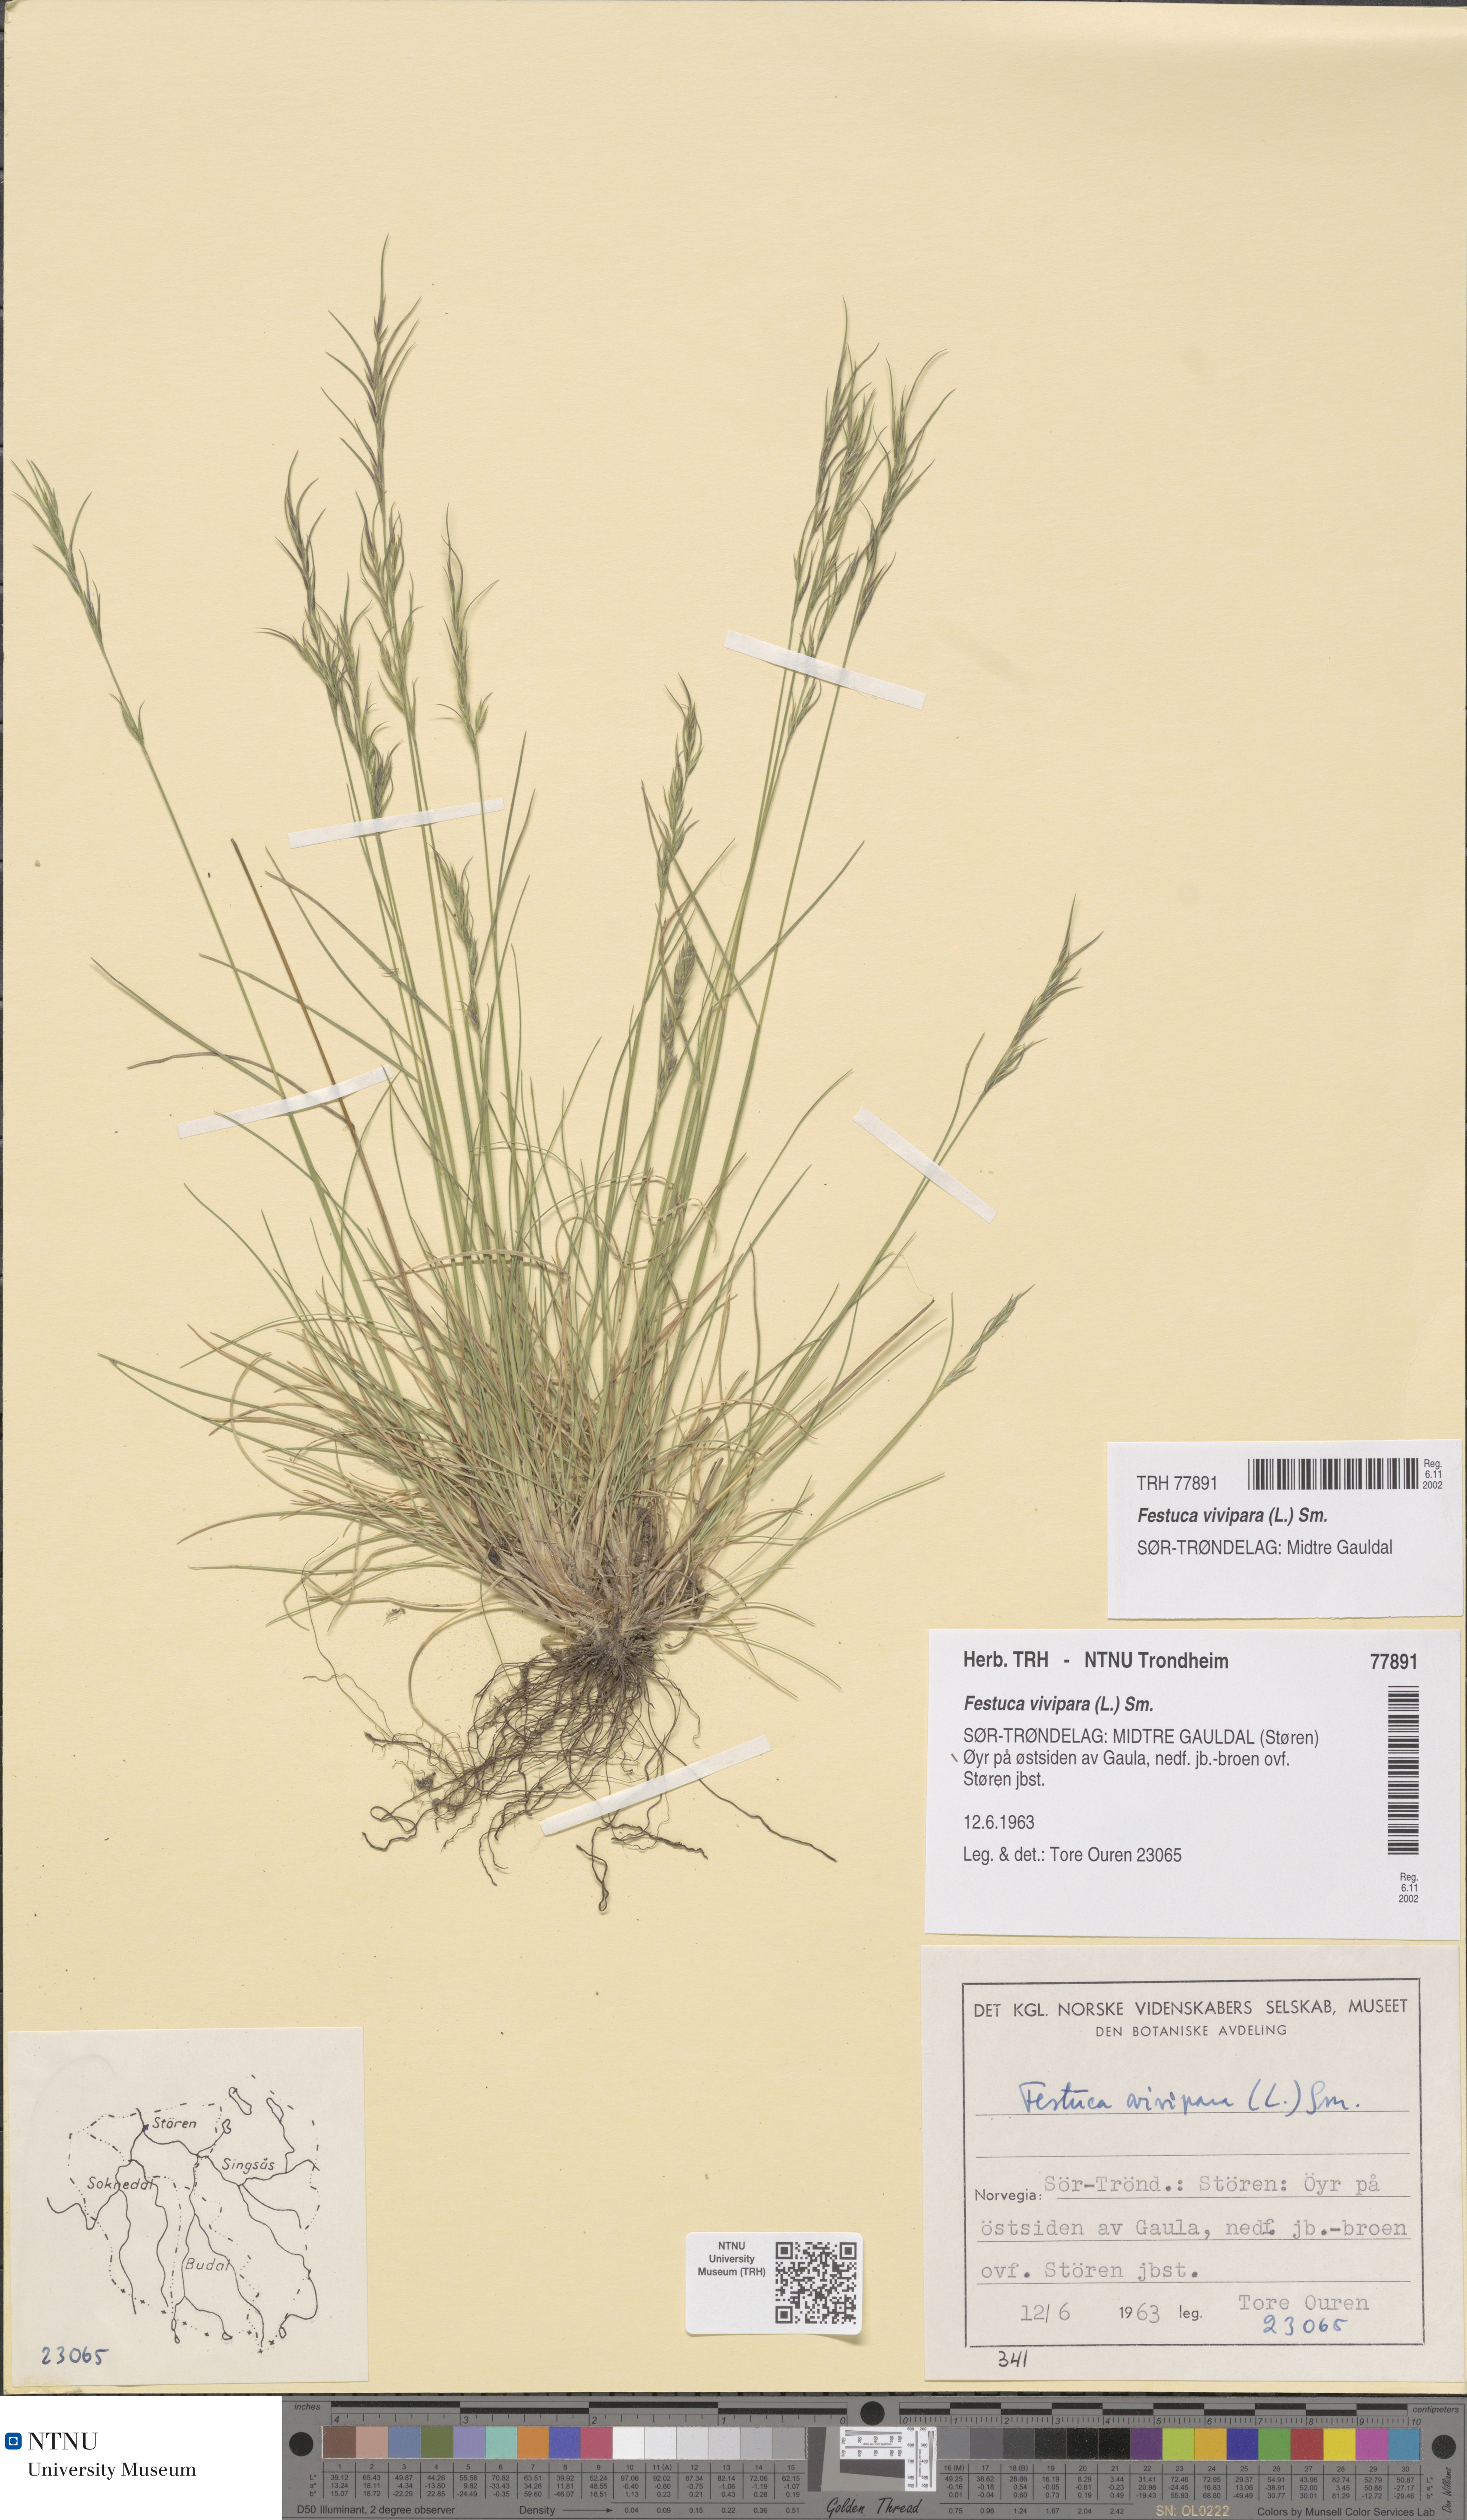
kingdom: Plantae
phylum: Tracheophyta
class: Liliopsida
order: Poales
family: Poaceae
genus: Festuca
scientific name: Festuca vivipara
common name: Viviparous sheep's-fescue
